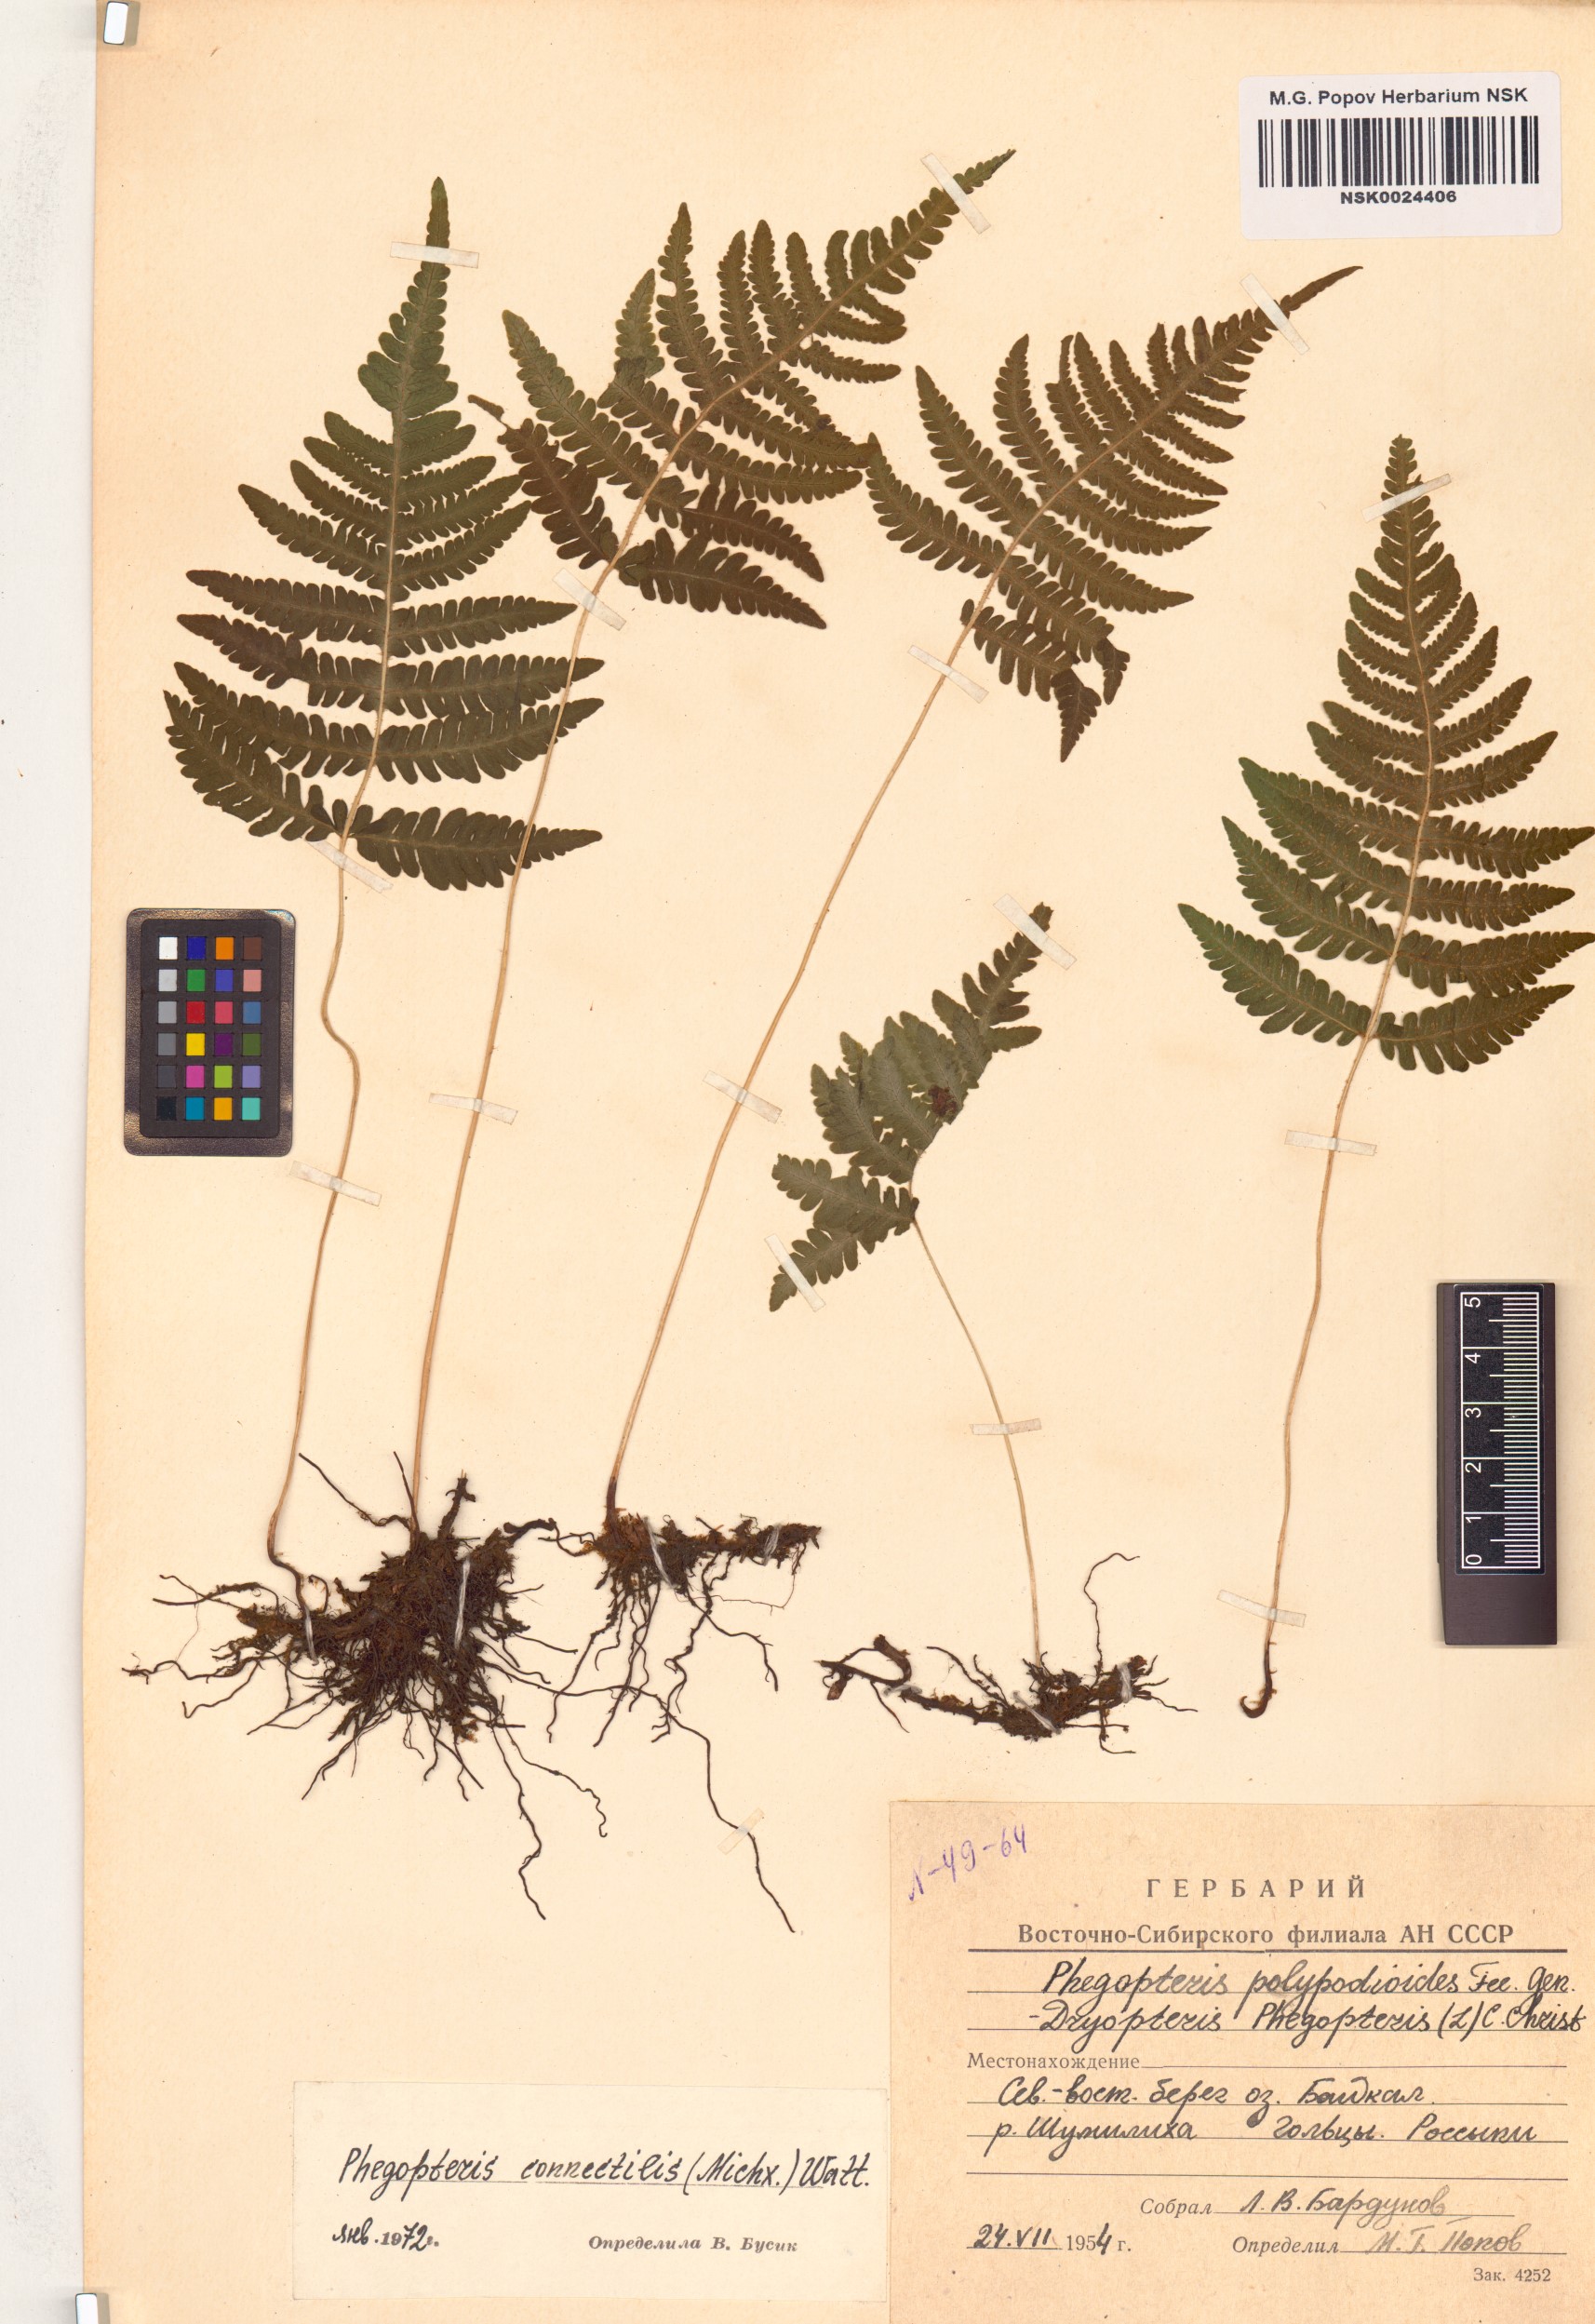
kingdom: Plantae
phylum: Tracheophyta
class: Polypodiopsida
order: Polypodiales
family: Thelypteridaceae
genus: Phegopteris
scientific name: Phegopteris connectilis
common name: Beech fern
